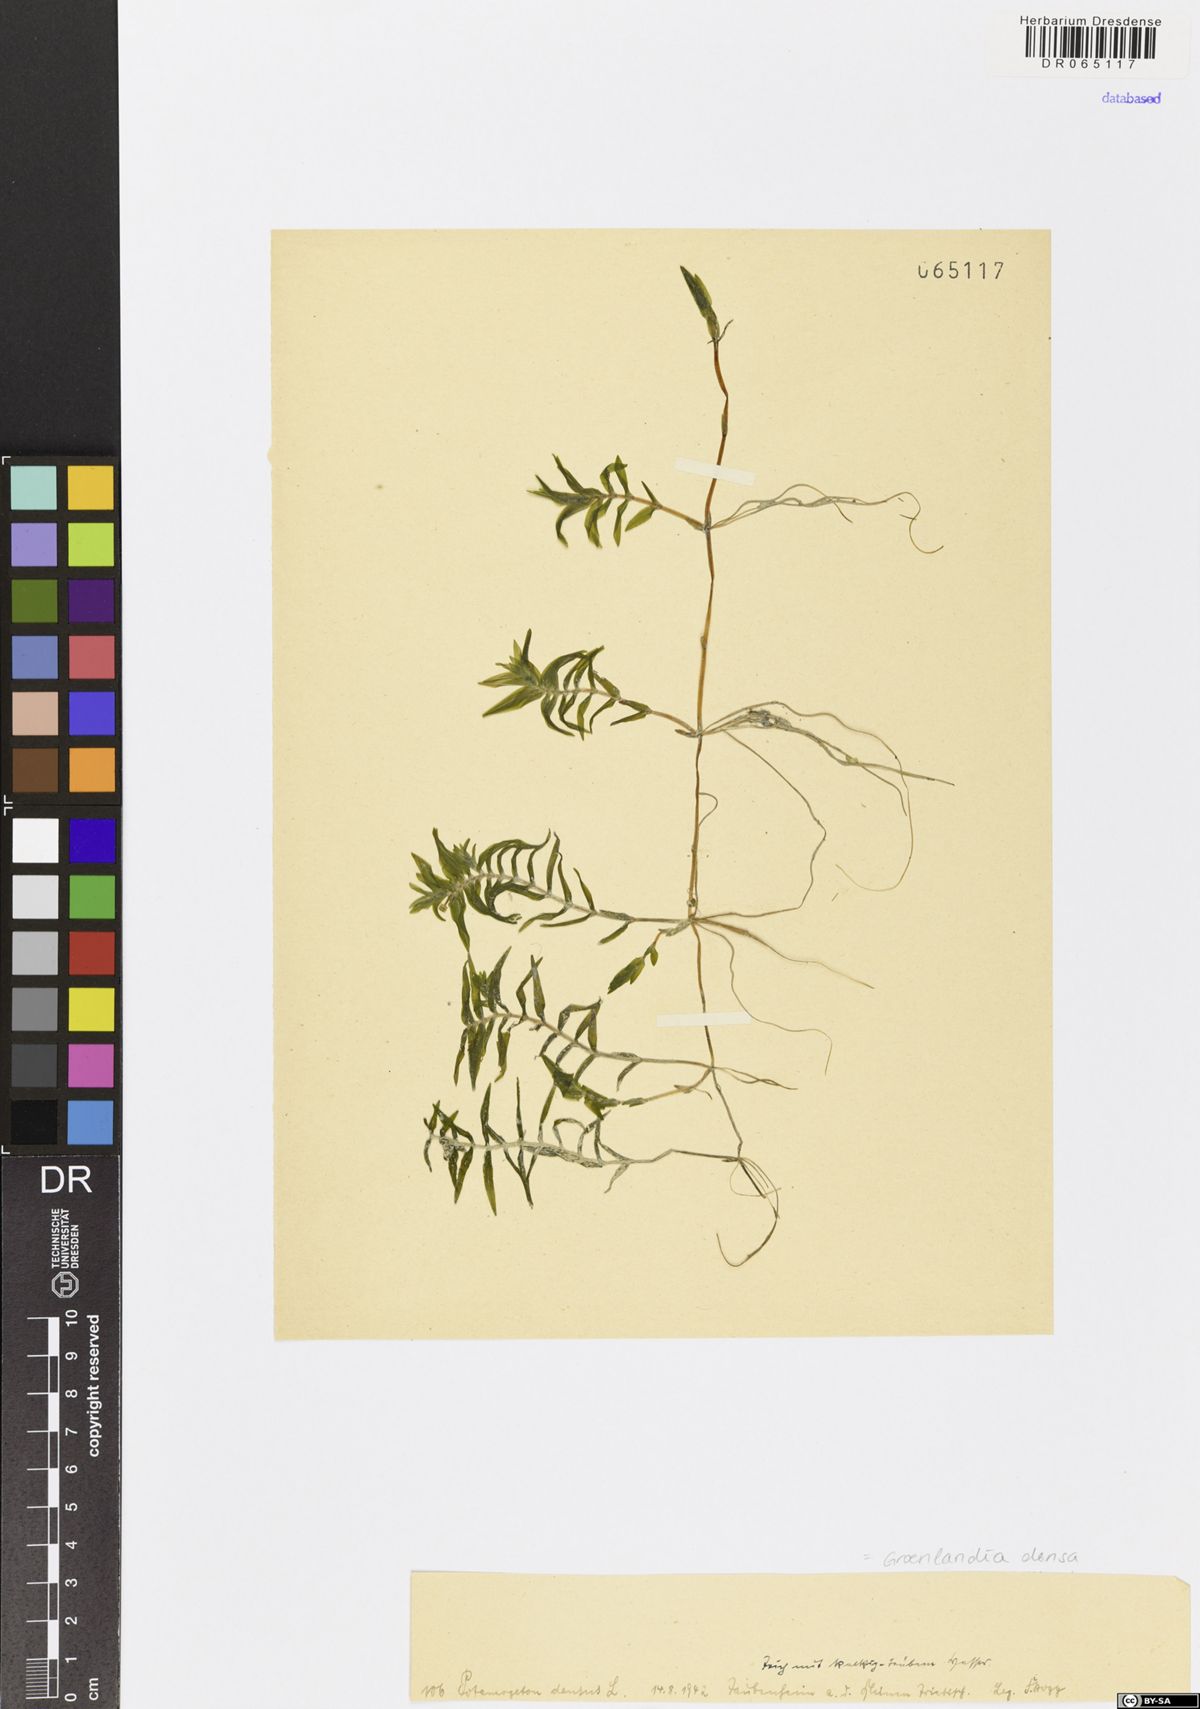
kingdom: Plantae
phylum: Tracheophyta
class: Liliopsida
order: Alismatales
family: Potamogetonaceae
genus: Groenlandia
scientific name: Groenlandia densa
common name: Opposite-leaved pondweed
